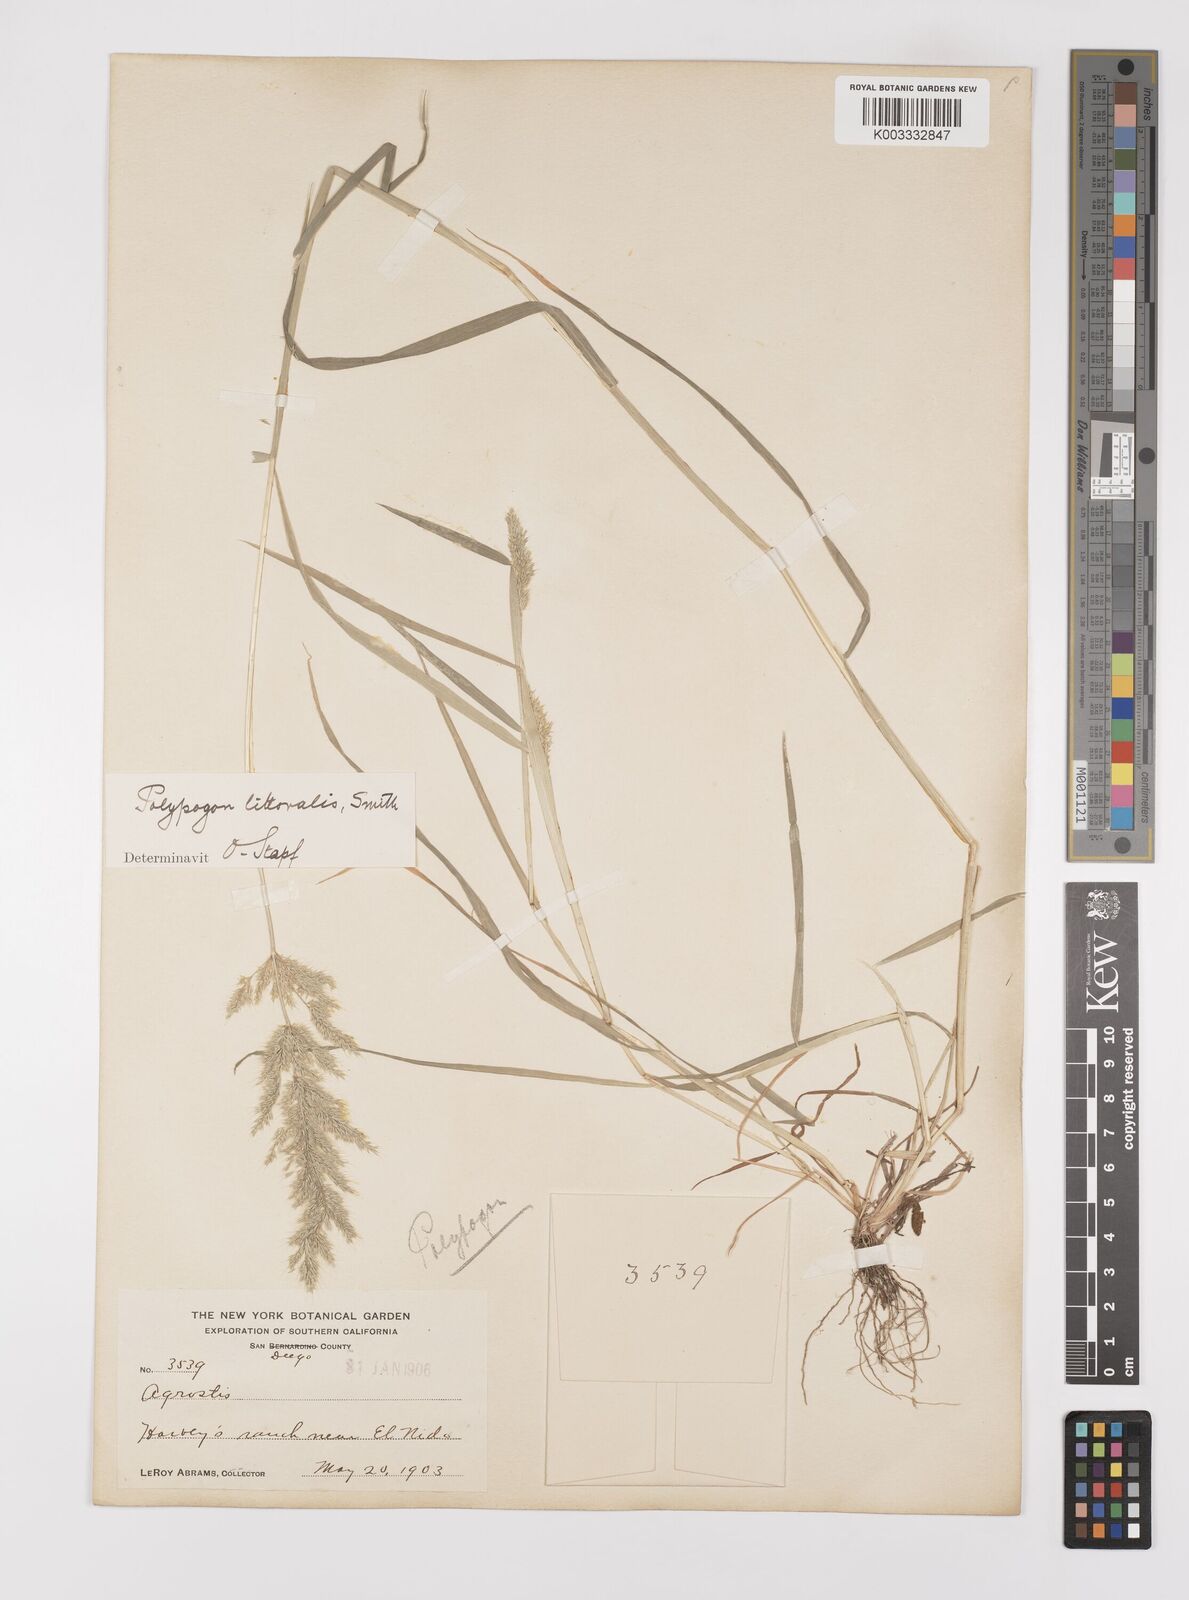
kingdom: Plantae
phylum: Tracheophyta
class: Liliopsida
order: Poales
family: Poaceae
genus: Polypogon
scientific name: Polypogon interruptus
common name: Ditch polypogon
